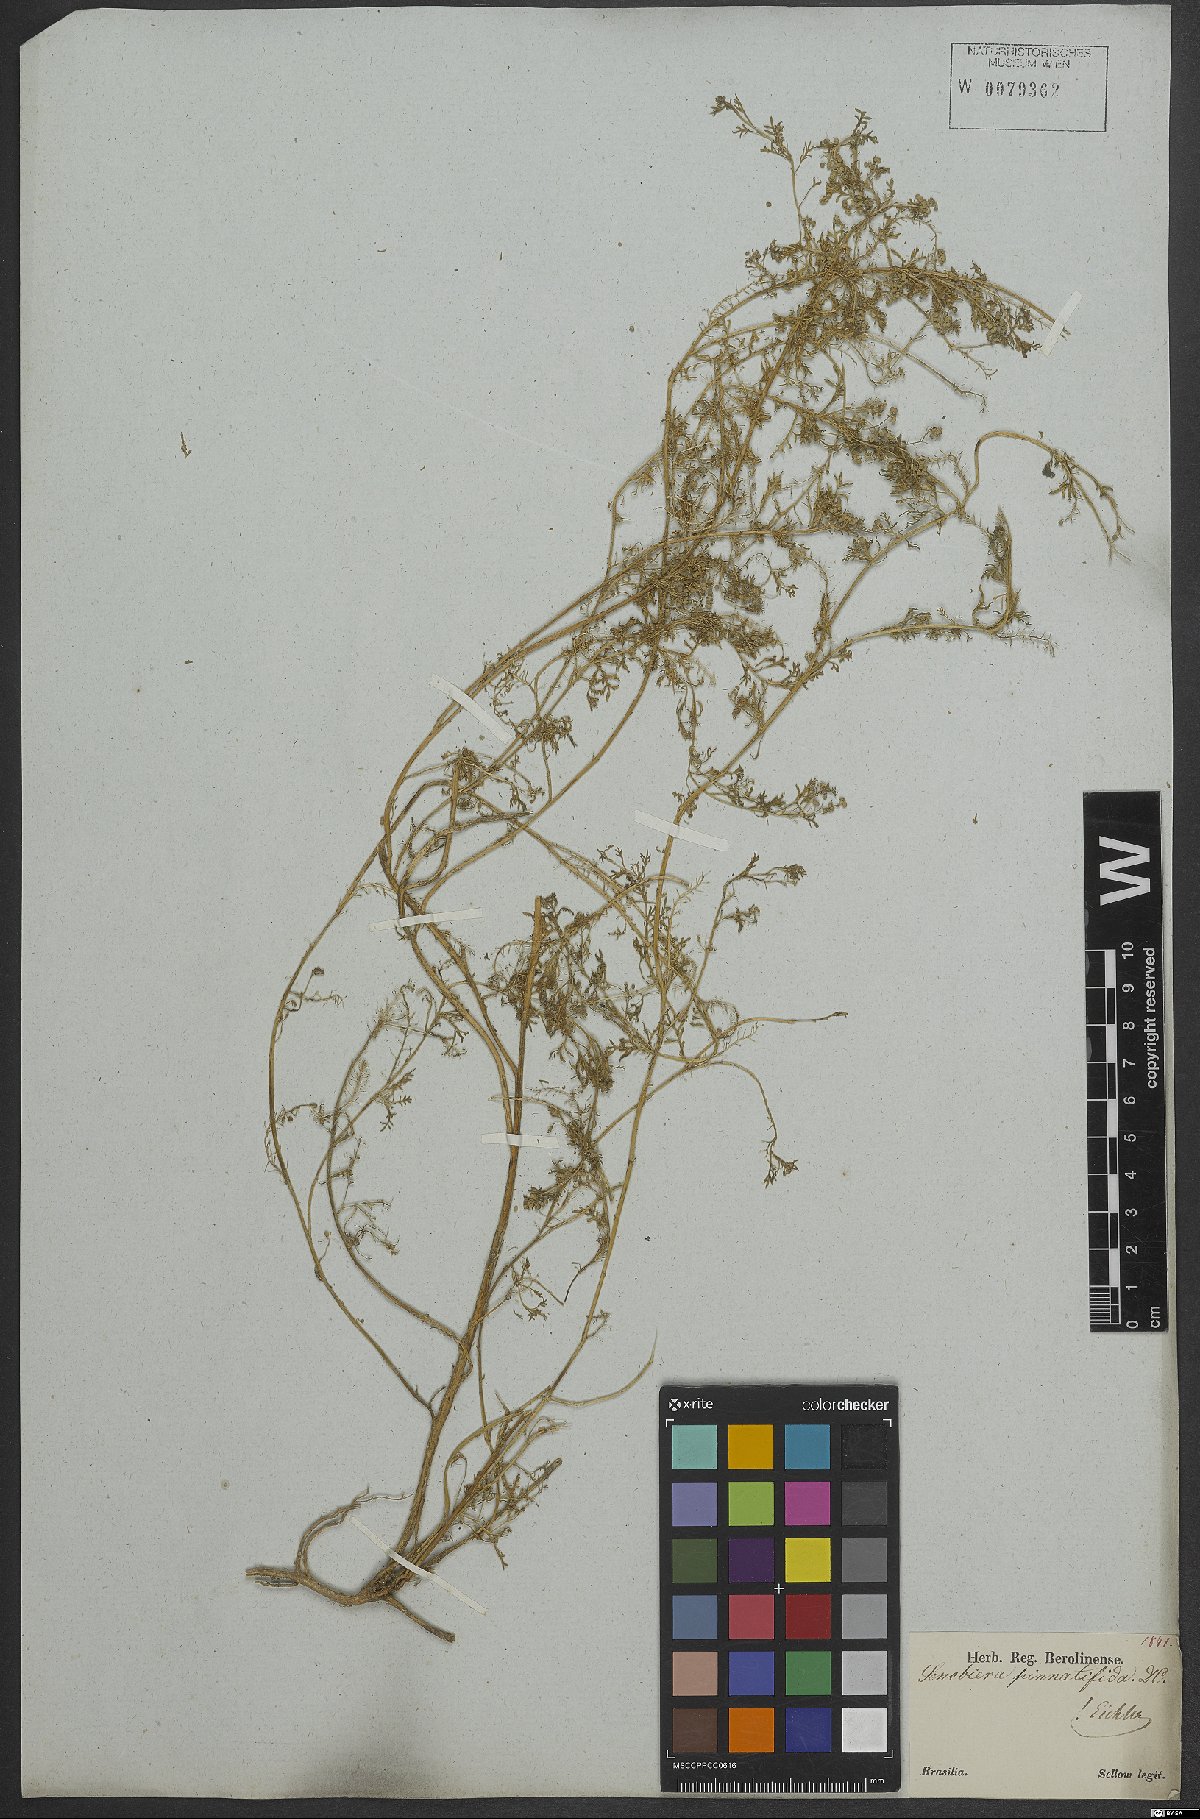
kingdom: Plantae
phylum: Tracheophyta
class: Magnoliopsida
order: Brassicales
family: Brassicaceae
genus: Lepidium
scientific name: Lepidium didymum
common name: Lesser swinecress
